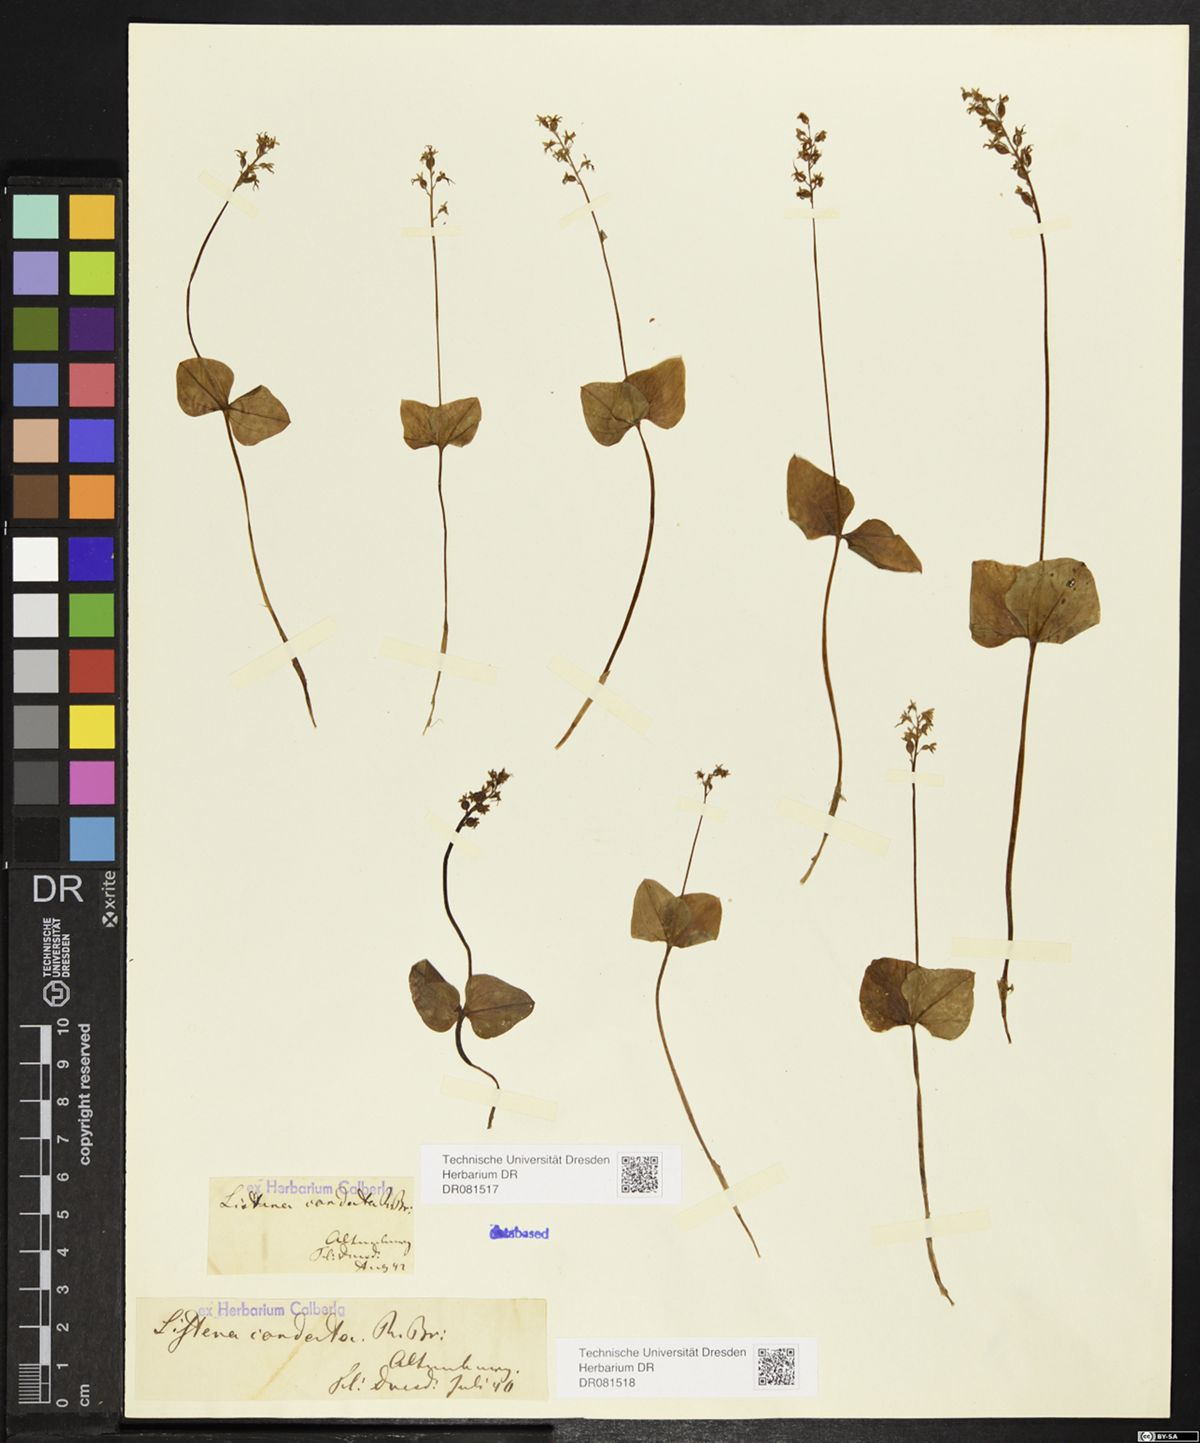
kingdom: Plantae
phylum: Tracheophyta
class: Liliopsida
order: Asparagales
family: Orchidaceae
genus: Neottia
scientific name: Neottia cordata
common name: Lesser twayblade
